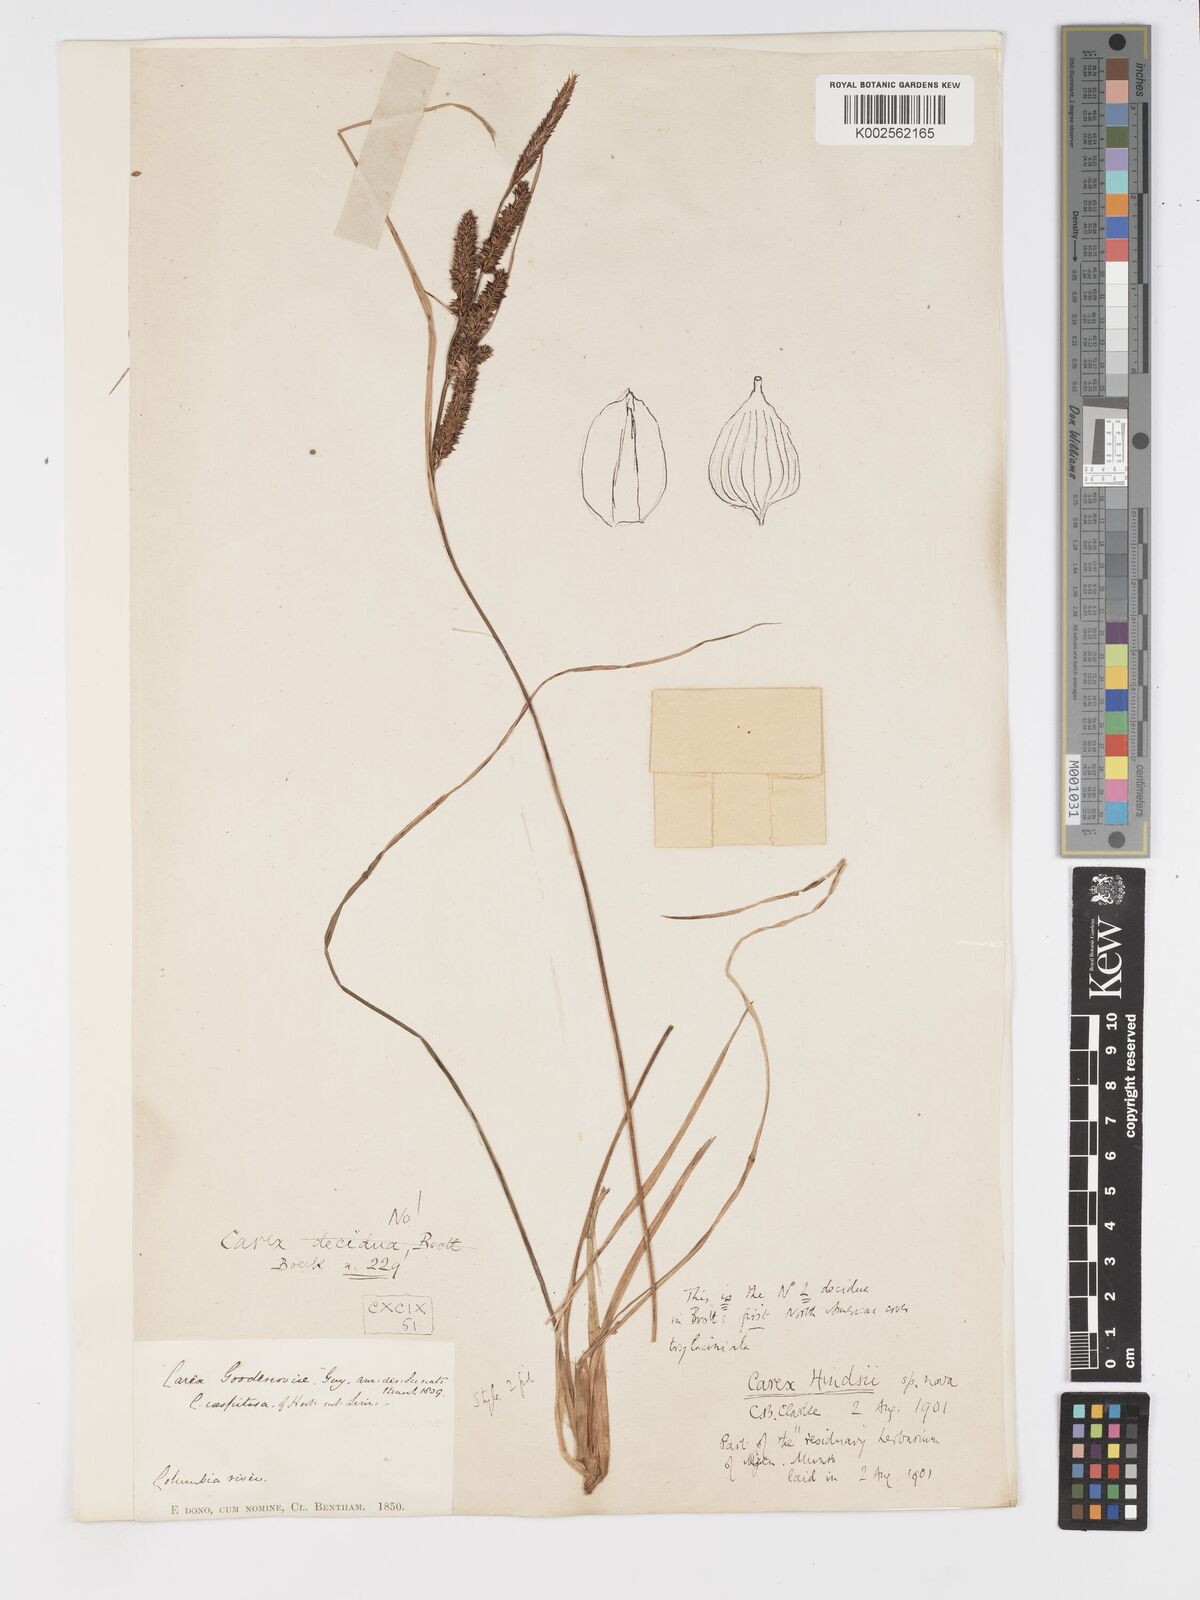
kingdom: Plantae
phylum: Tracheophyta
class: Liliopsida
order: Poales
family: Cyperaceae
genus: Carex
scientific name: Carex kelloggii
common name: Kellogg's sedge
